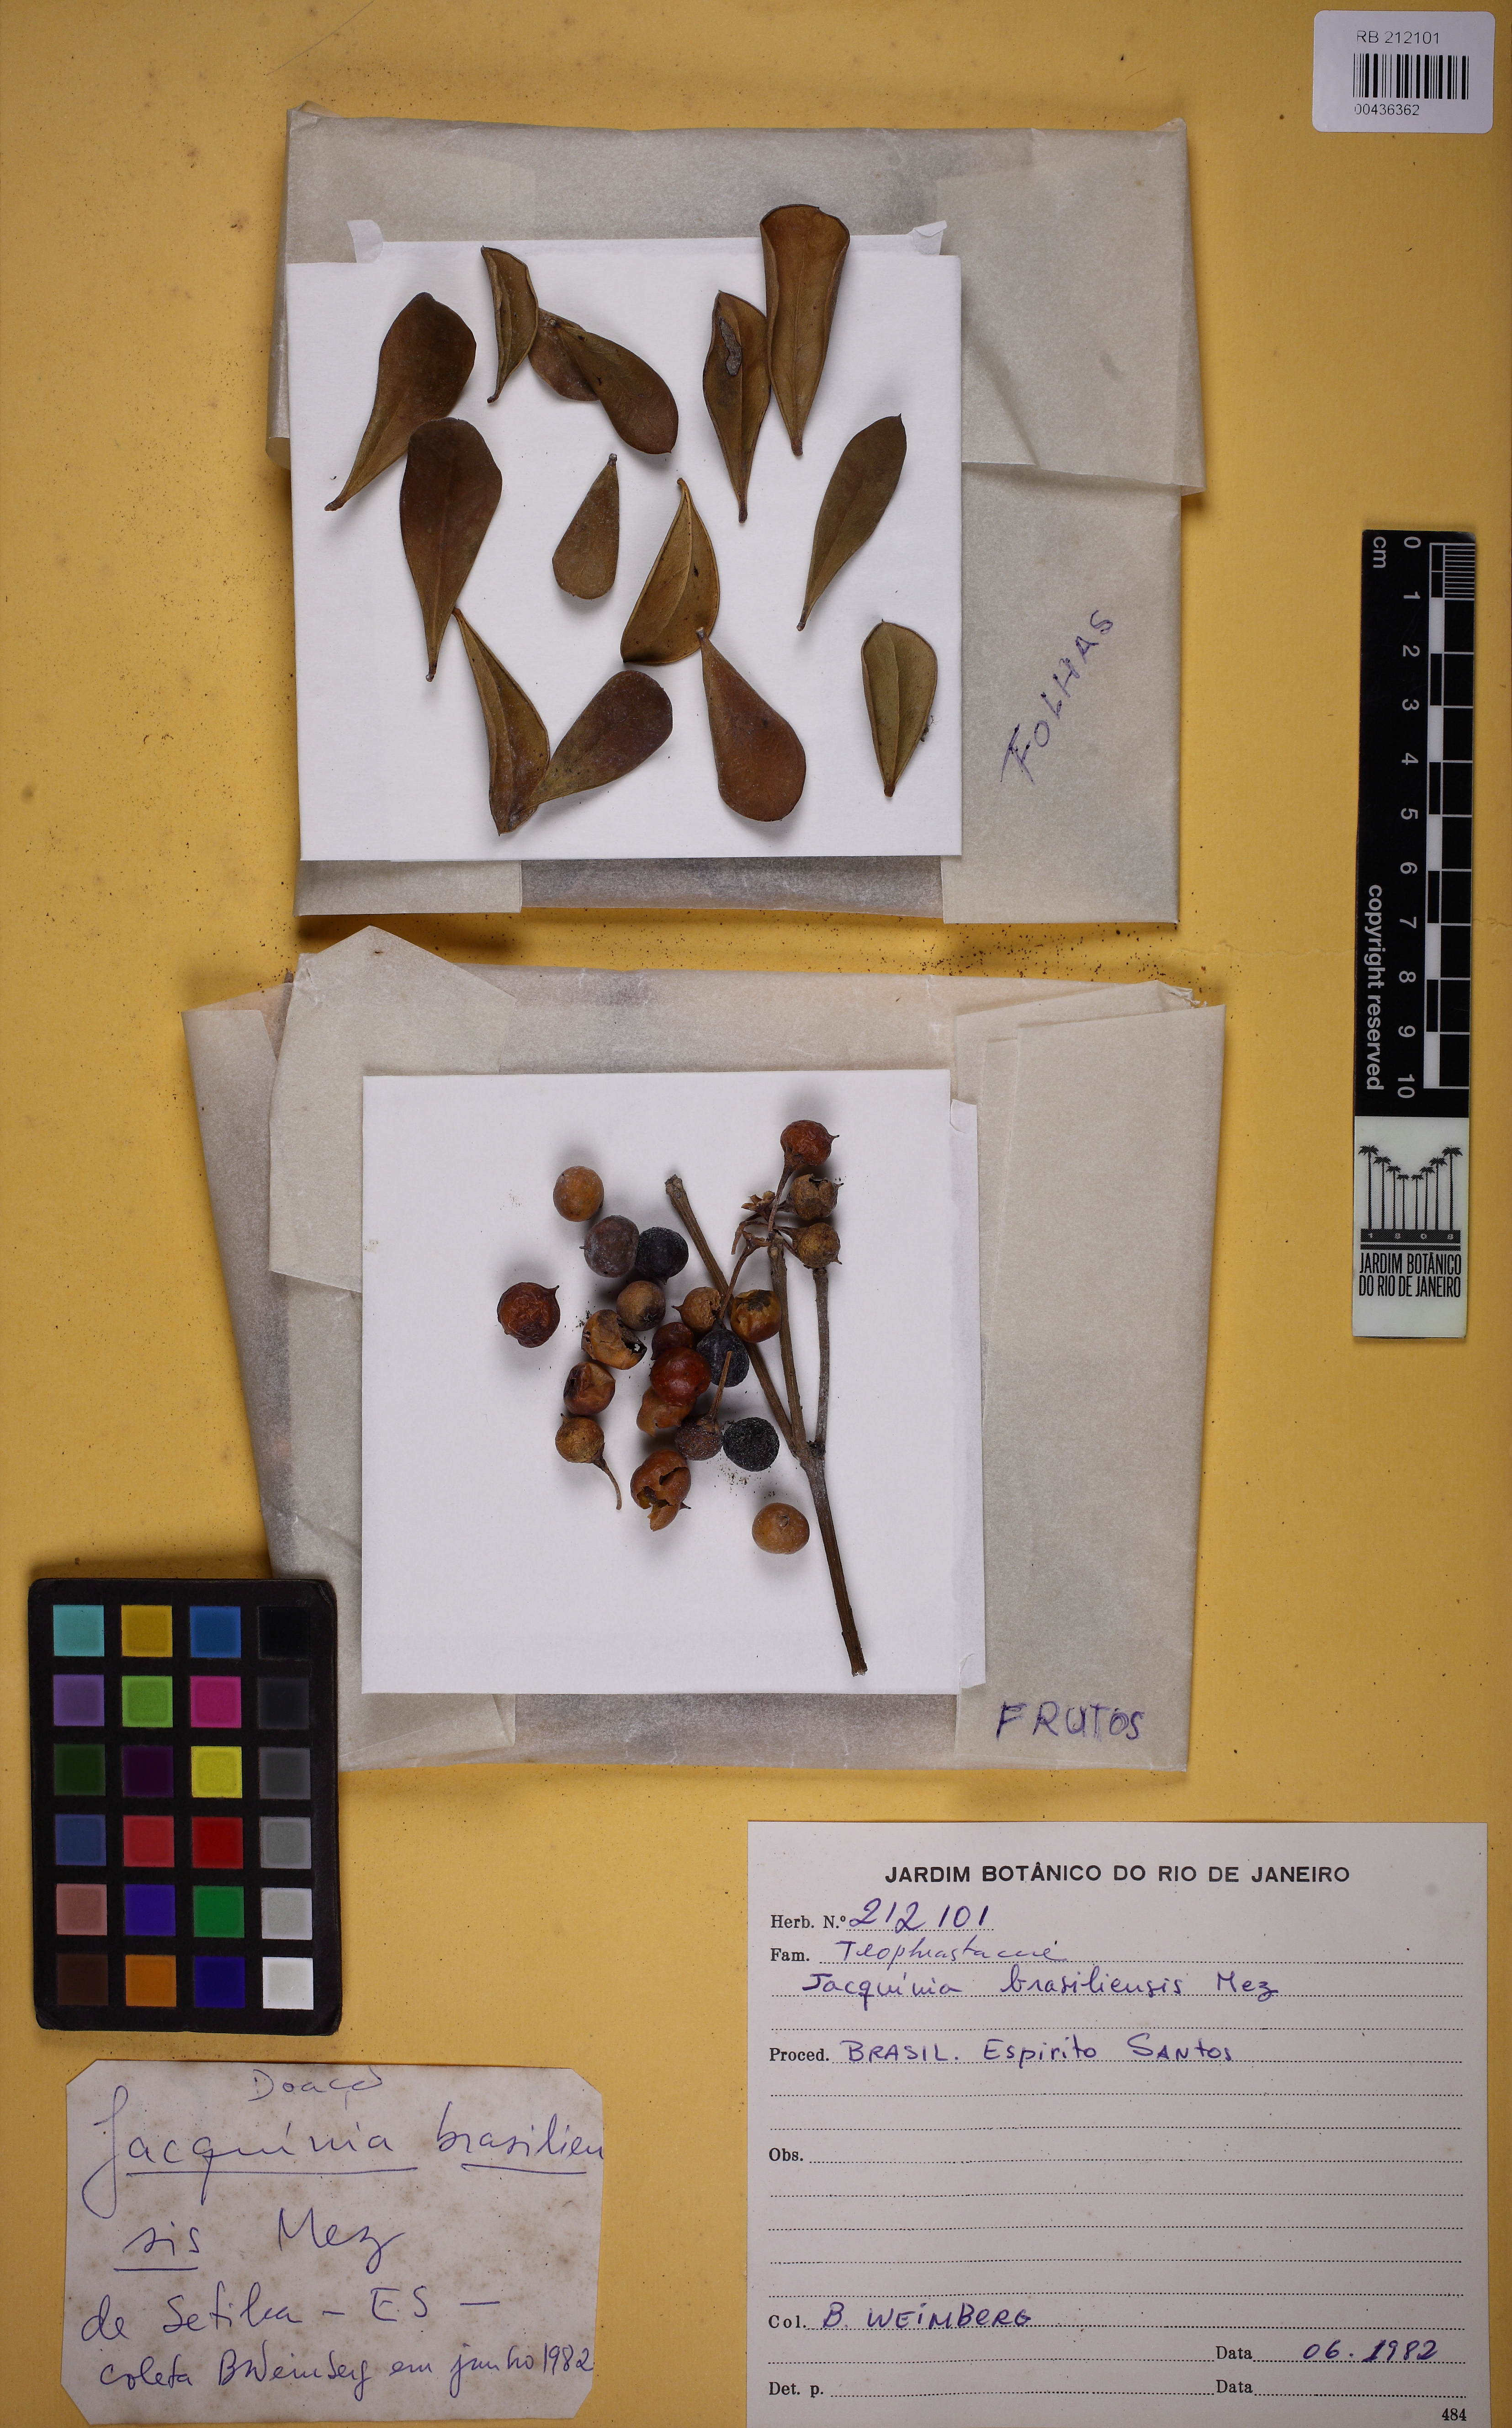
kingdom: Plantae
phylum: Tracheophyta
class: Magnoliopsida
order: Ericales
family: Primulaceae
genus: Jacquinia
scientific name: Jacquinia armillaris
